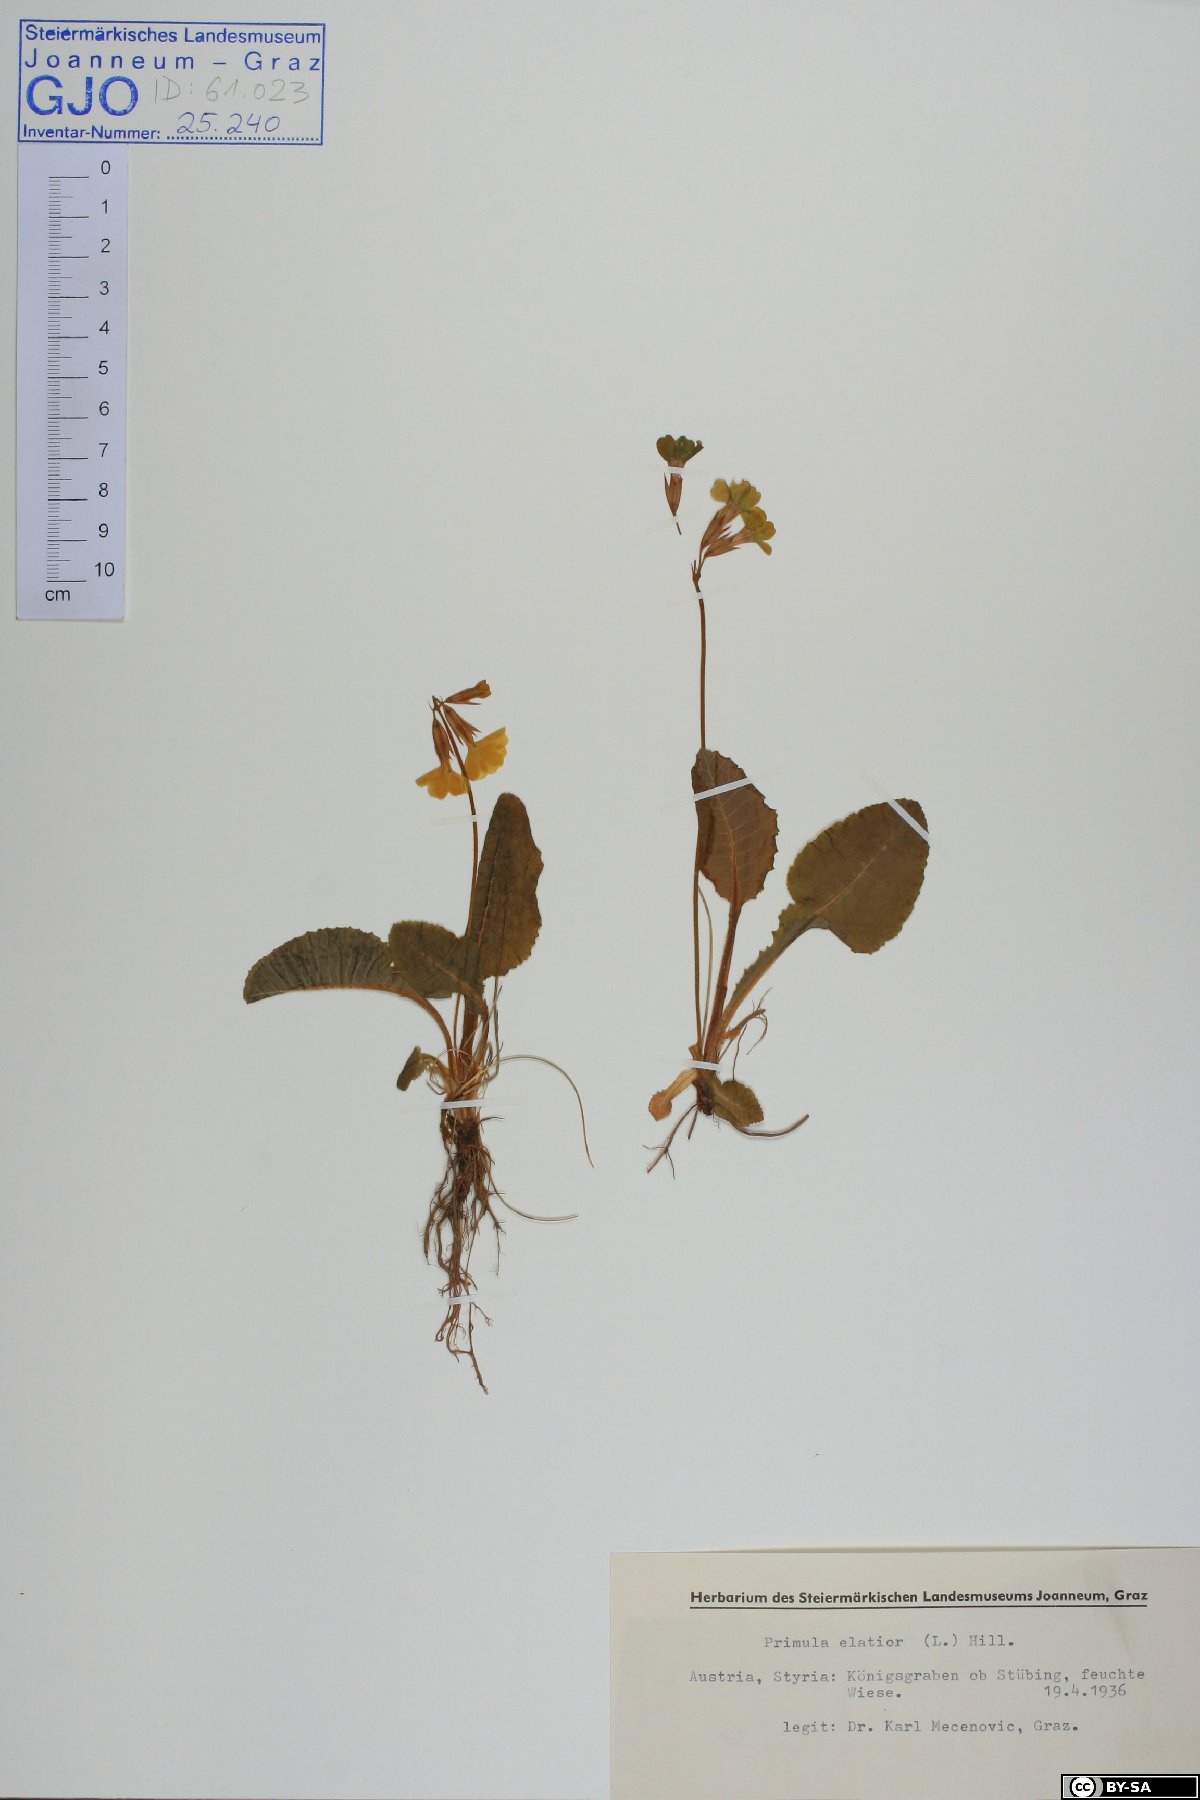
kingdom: Plantae
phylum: Tracheophyta
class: Magnoliopsida
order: Ericales
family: Primulaceae
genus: Primula
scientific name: Primula elatior
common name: Oxlip
